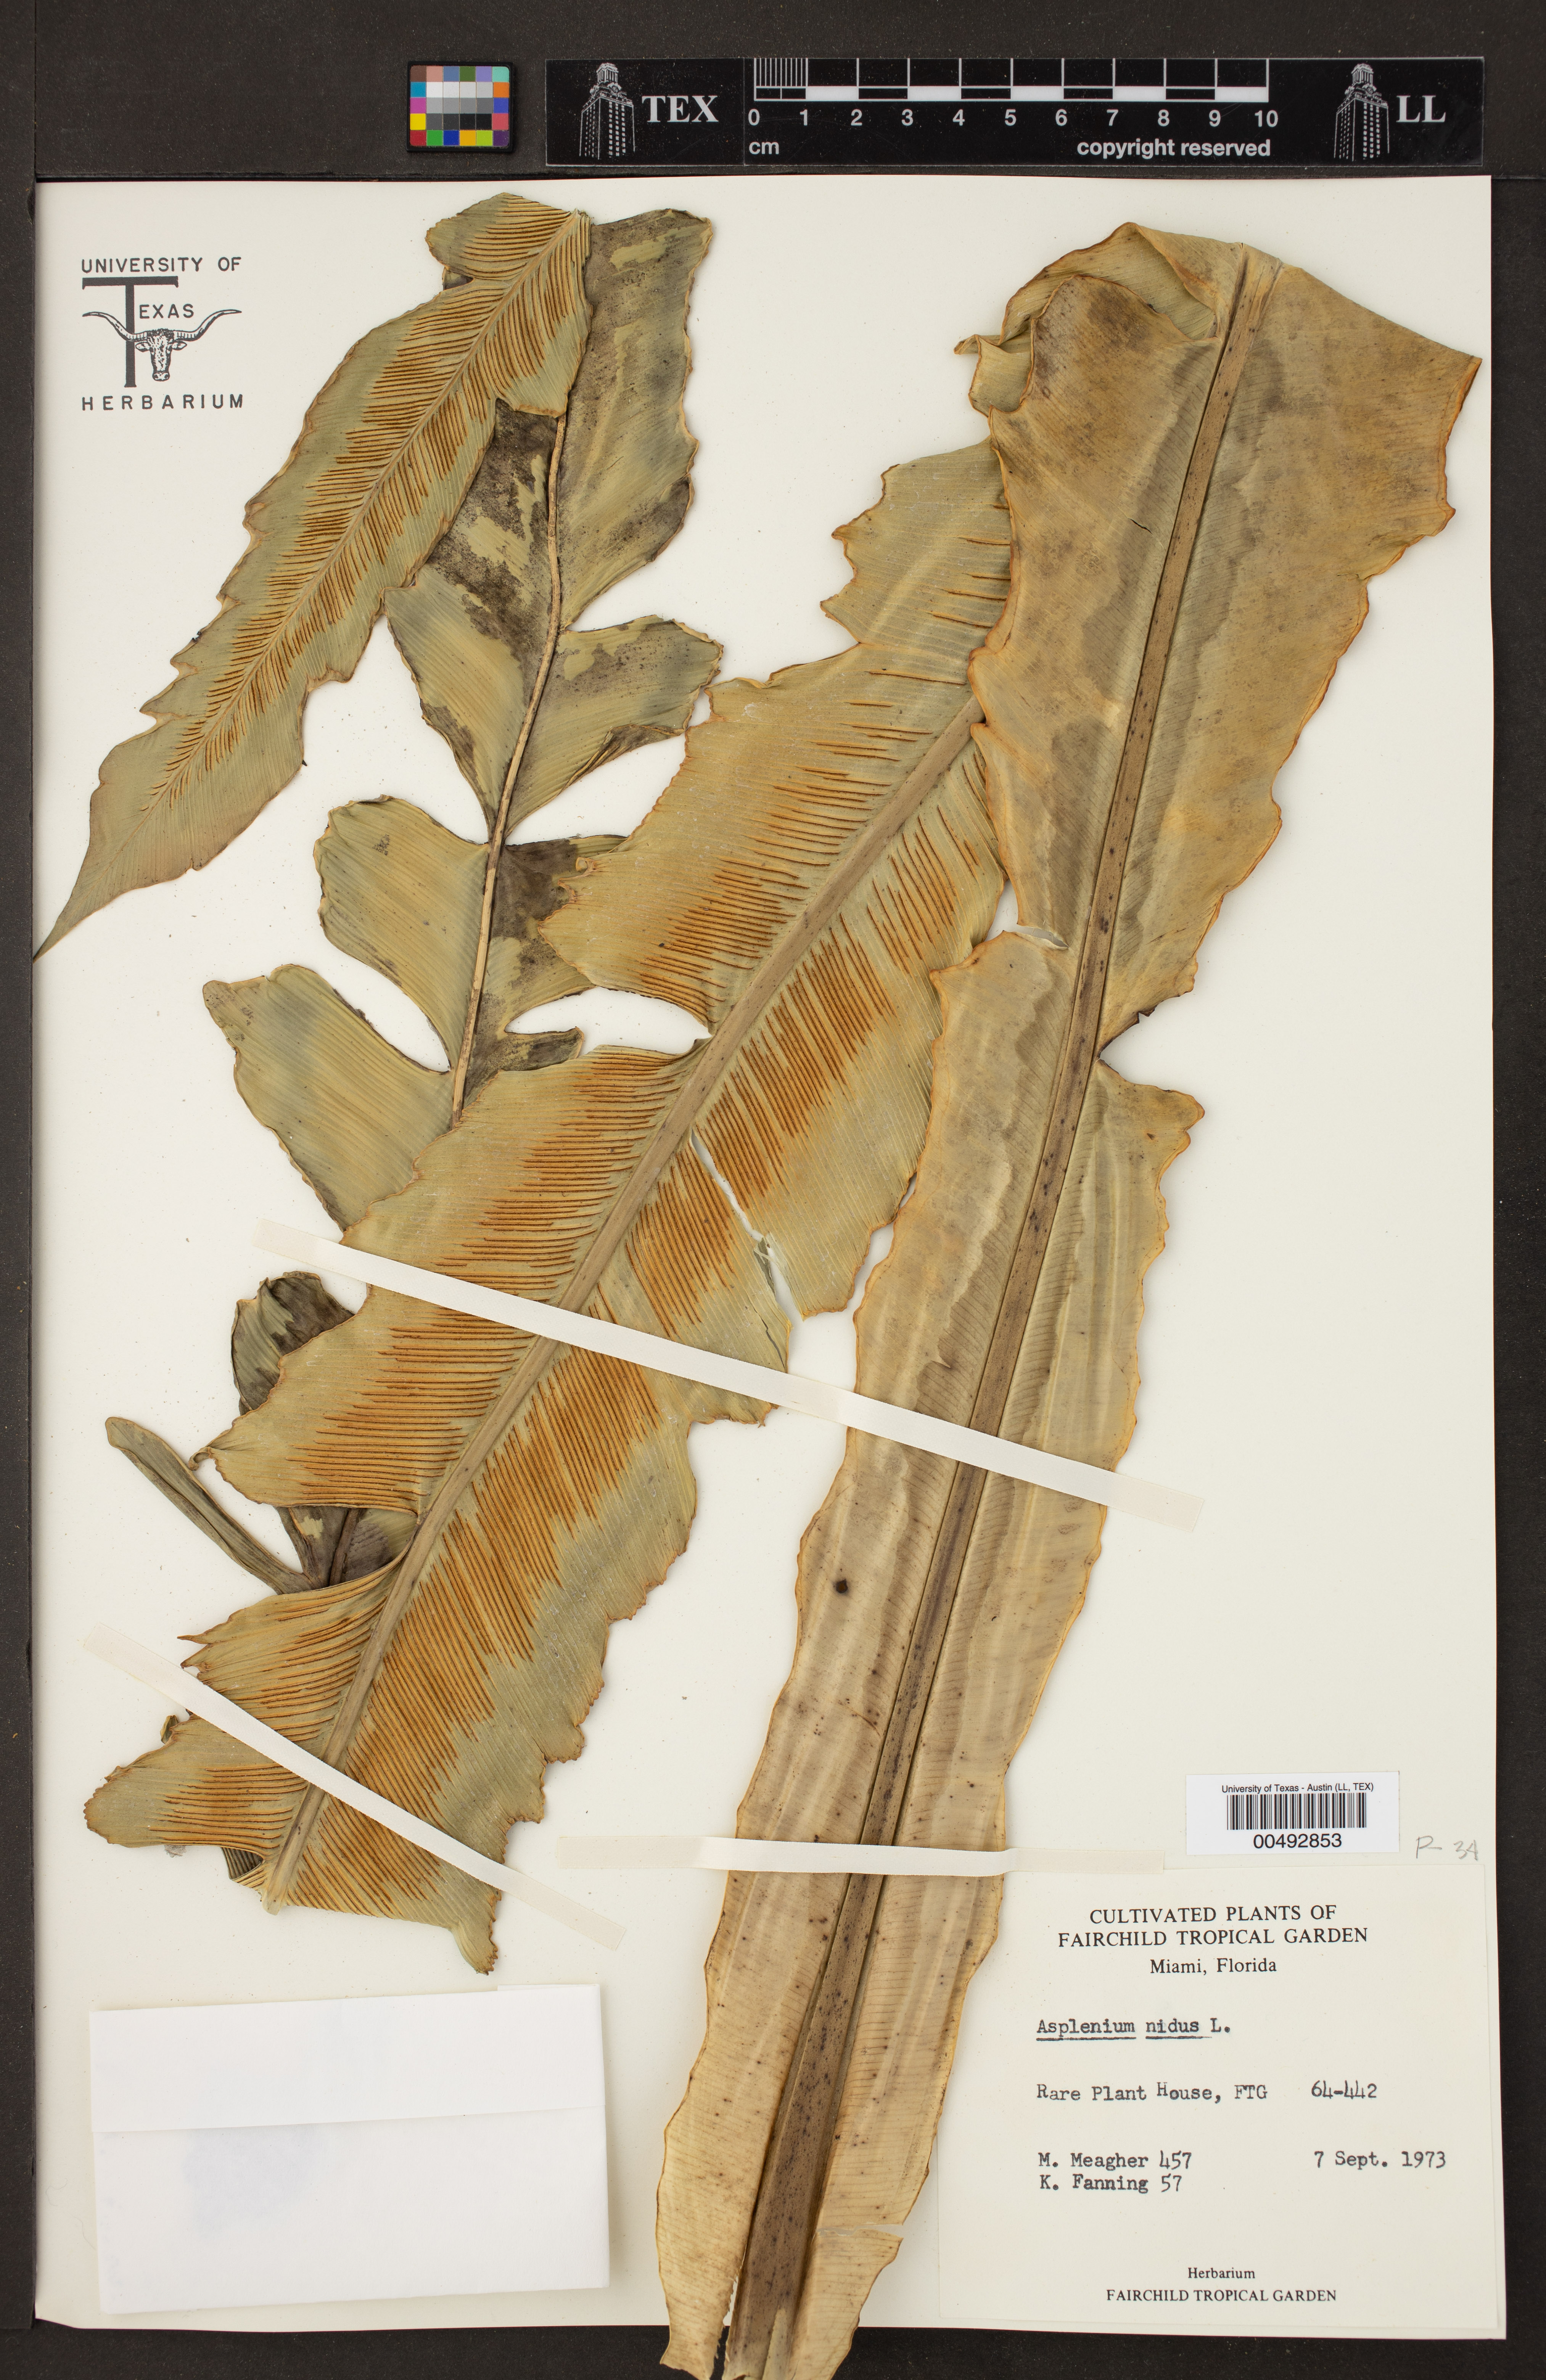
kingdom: Plantae
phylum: Tracheophyta
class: Polypodiopsida
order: Polypodiales
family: Aspleniaceae
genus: Asplenium
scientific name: Asplenium nidus
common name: Bird's-nest fern
